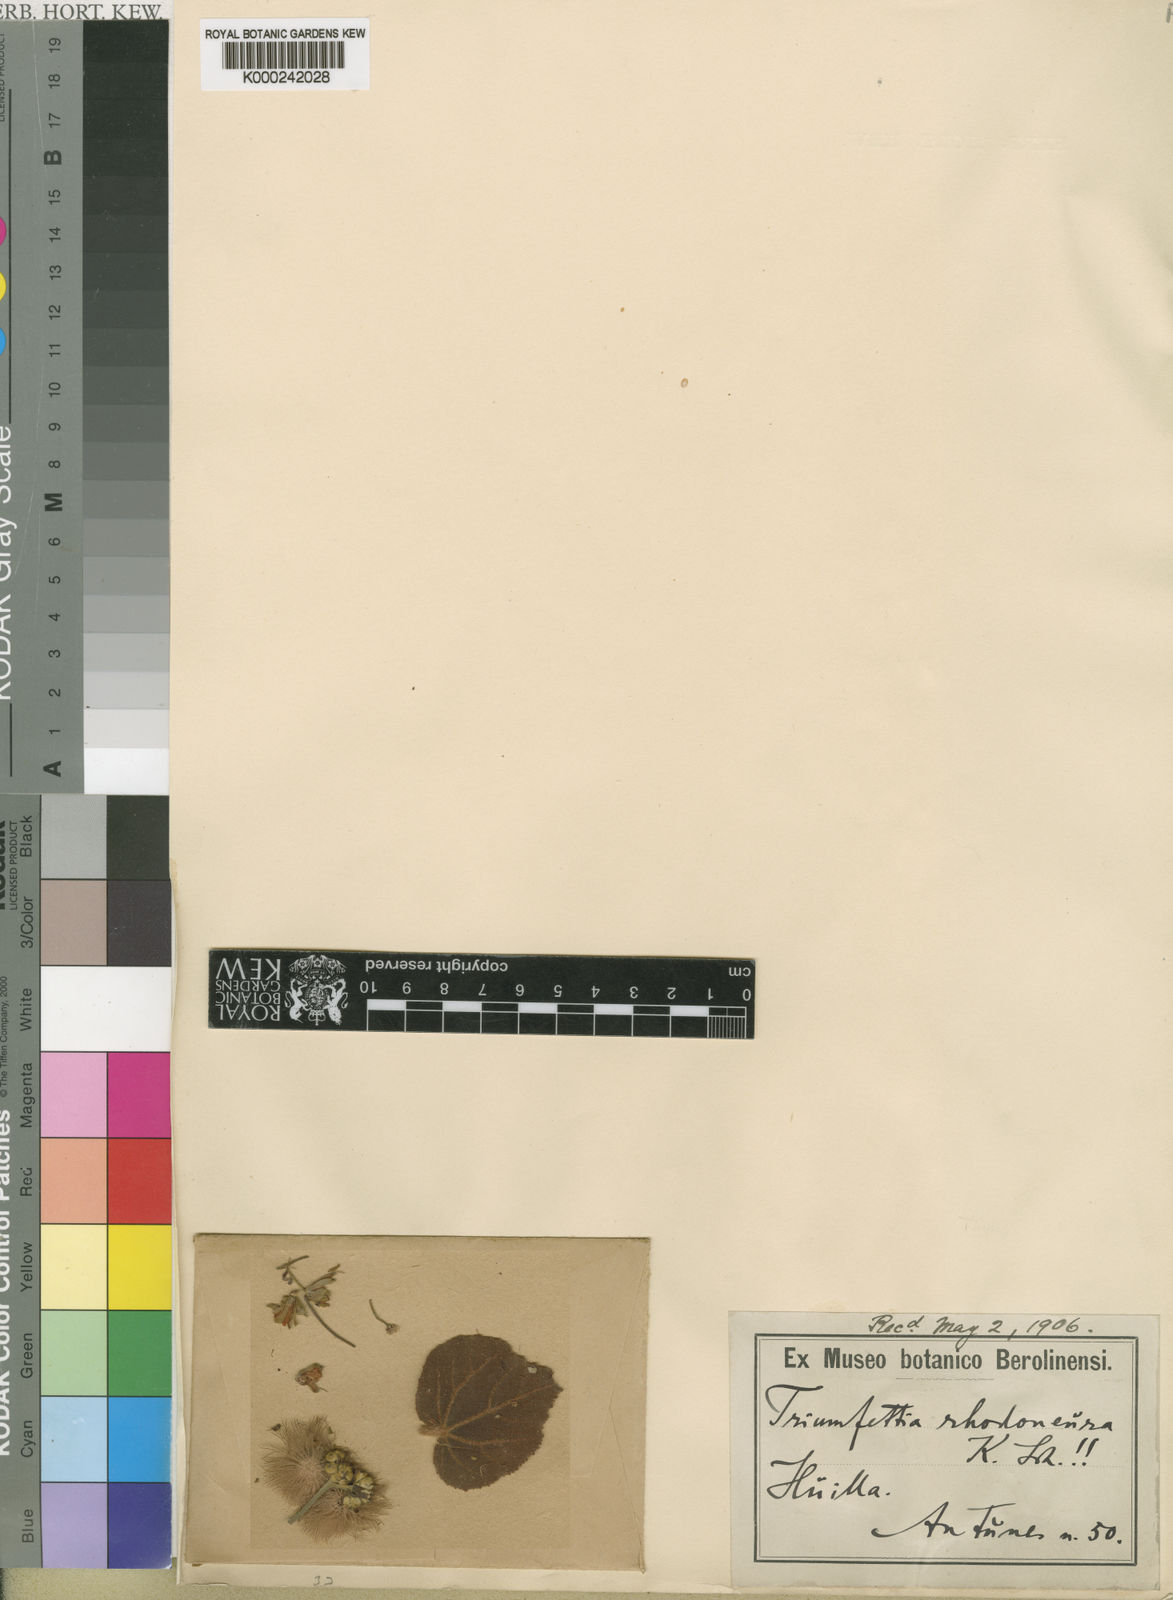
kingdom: Plantae
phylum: Tracheophyta
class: Magnoliopsida
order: Malvales
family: Malvaceae
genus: Triumfetta
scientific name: Triumfetta
